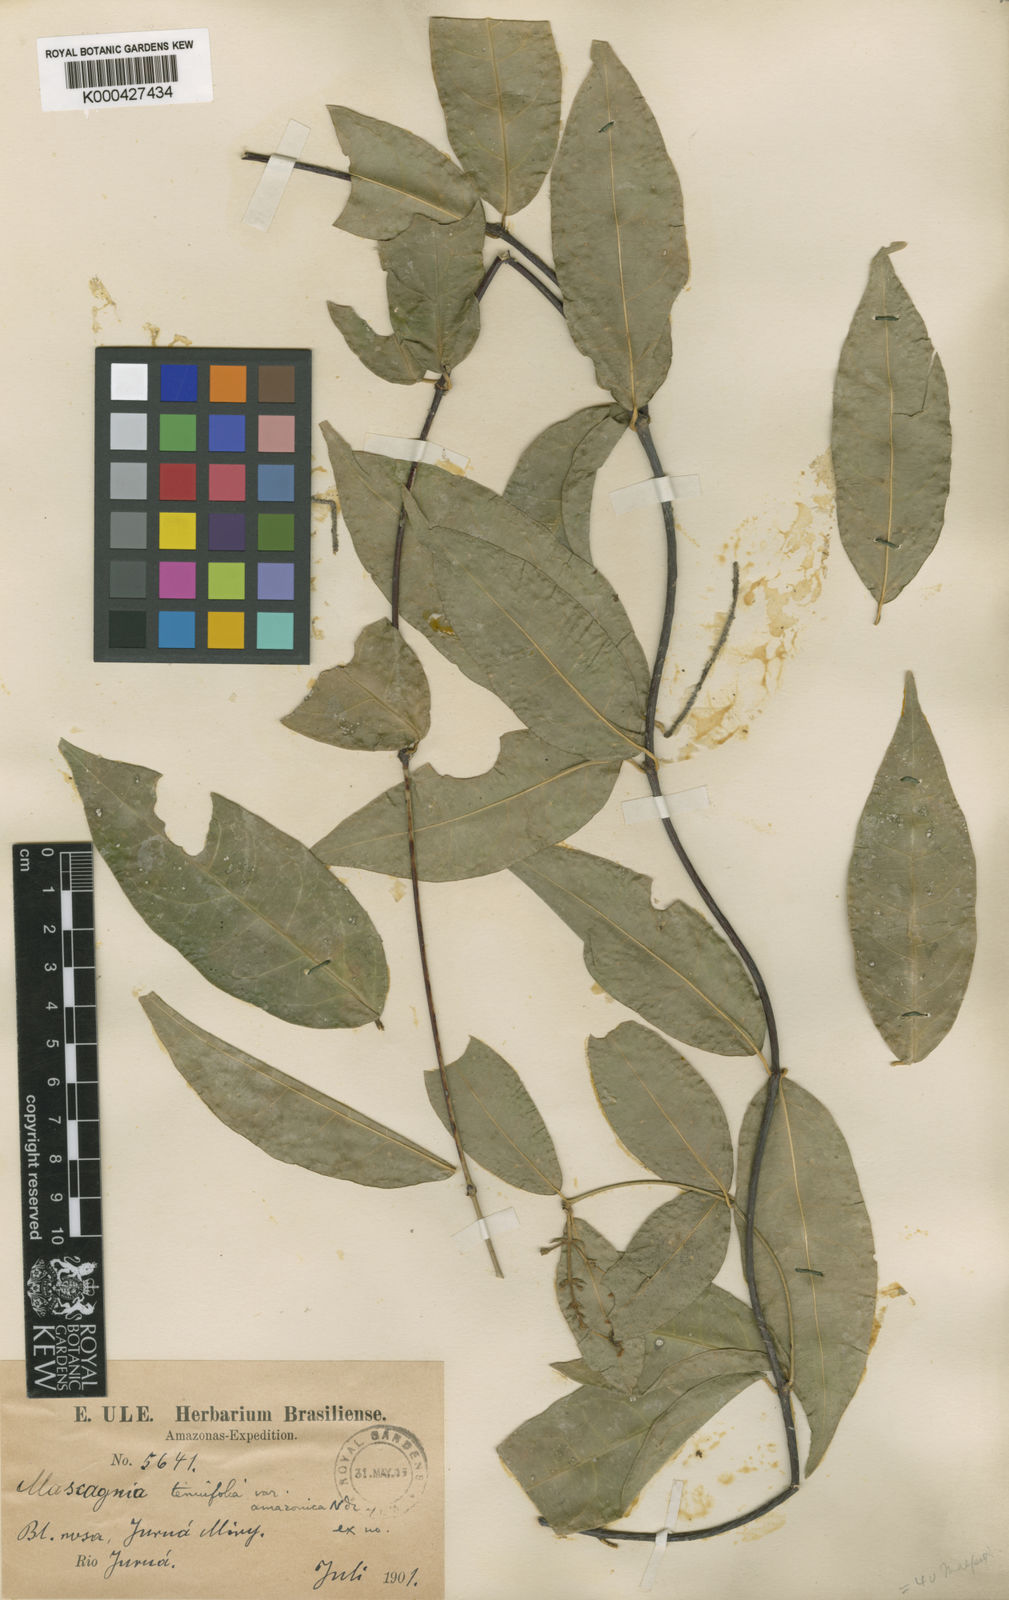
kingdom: Plantae
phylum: Tracheophyta
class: Magnoliopsida
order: Malpighiales
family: Malpighiaceae
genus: Mascagnia
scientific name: Mascagnia tenuifolia
